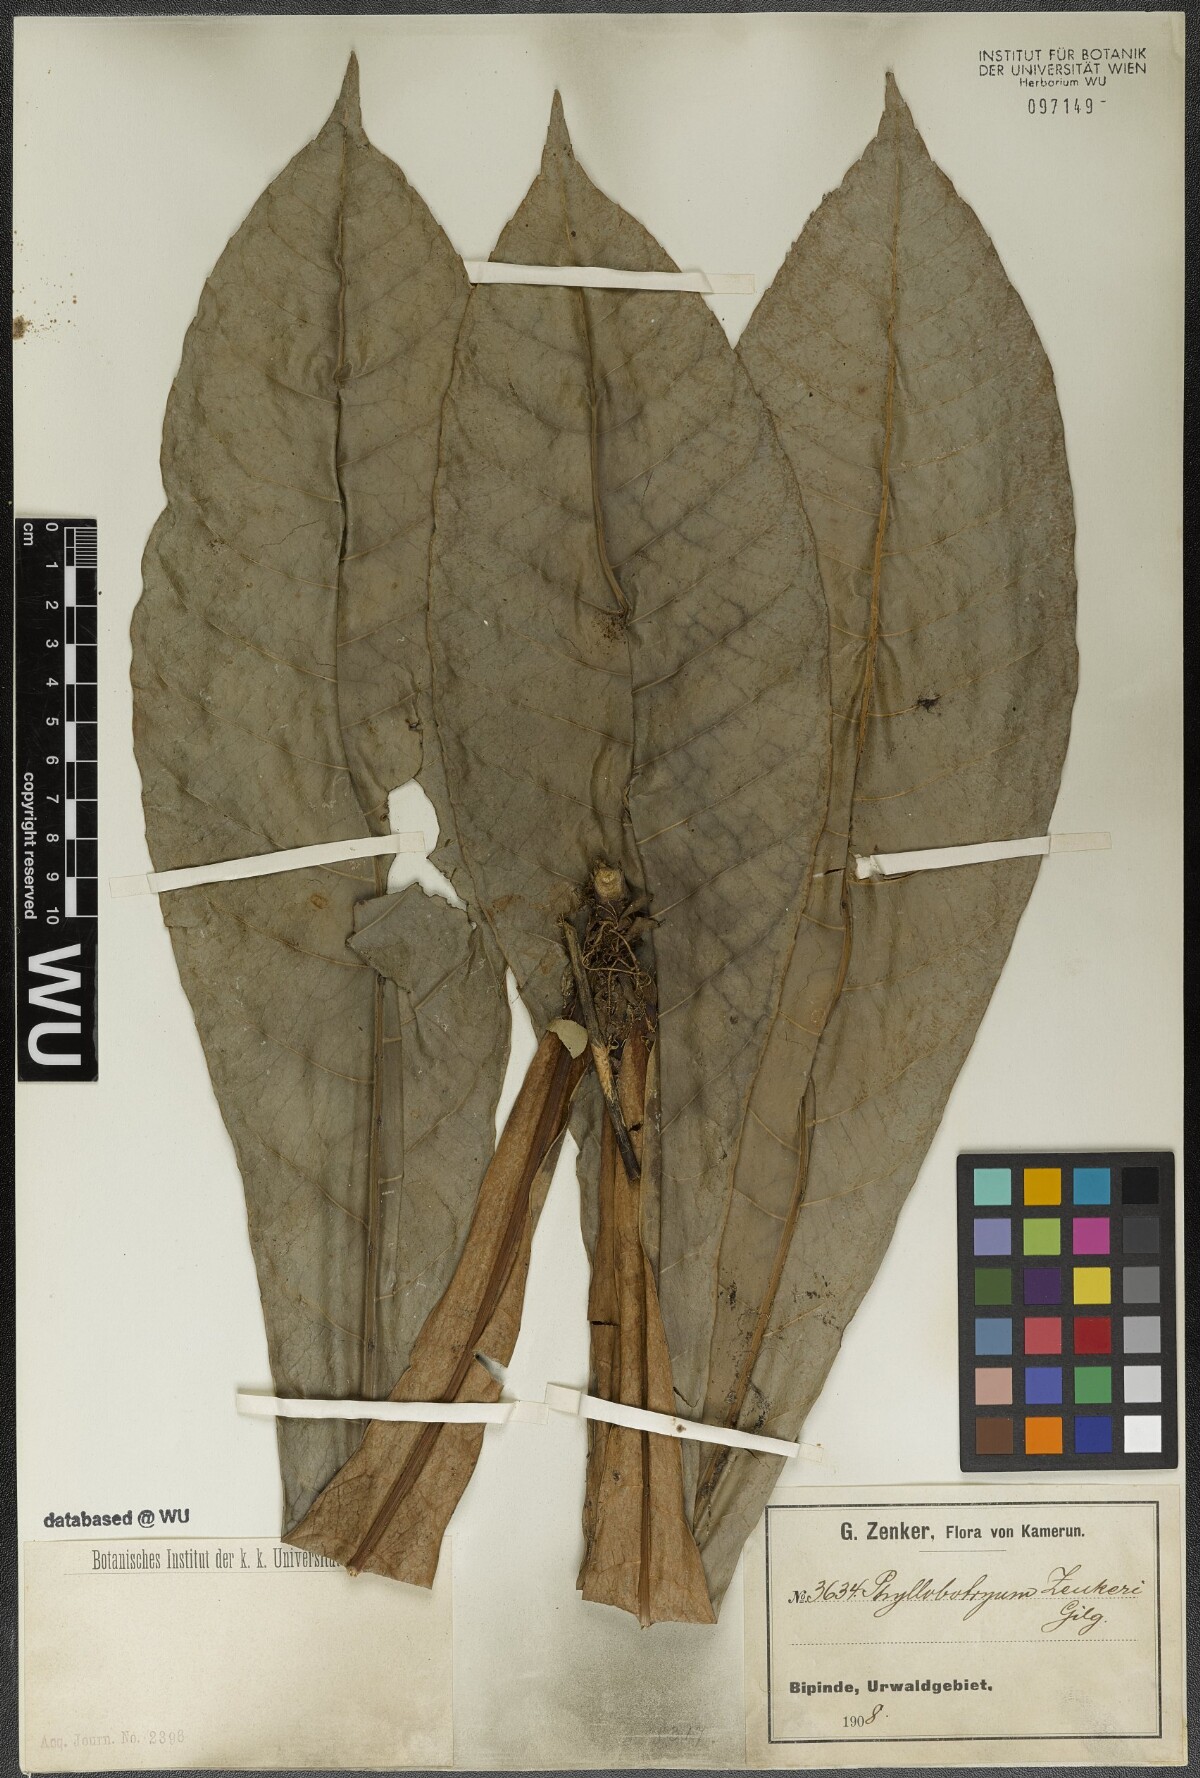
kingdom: Plantae
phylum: Tracheophyta
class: Magnoliopsida
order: Malpighiales
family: Salicaceae
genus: Phyllobotryon
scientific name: Phyllobotryon spathulatum
